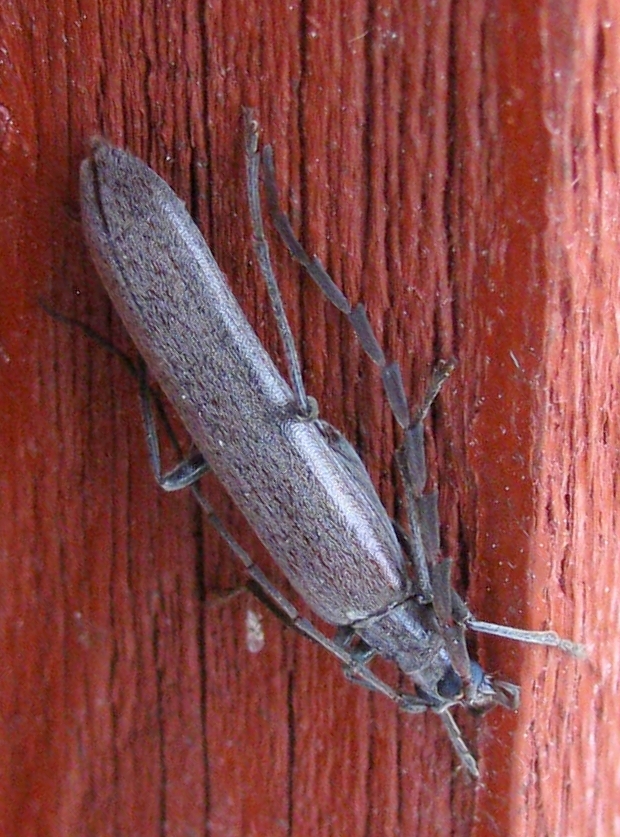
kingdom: Animalia
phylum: Arthropoda
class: Insecta
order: Coleoptera
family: Cerambycidae
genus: Vesperus
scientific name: Vesperus luridus
